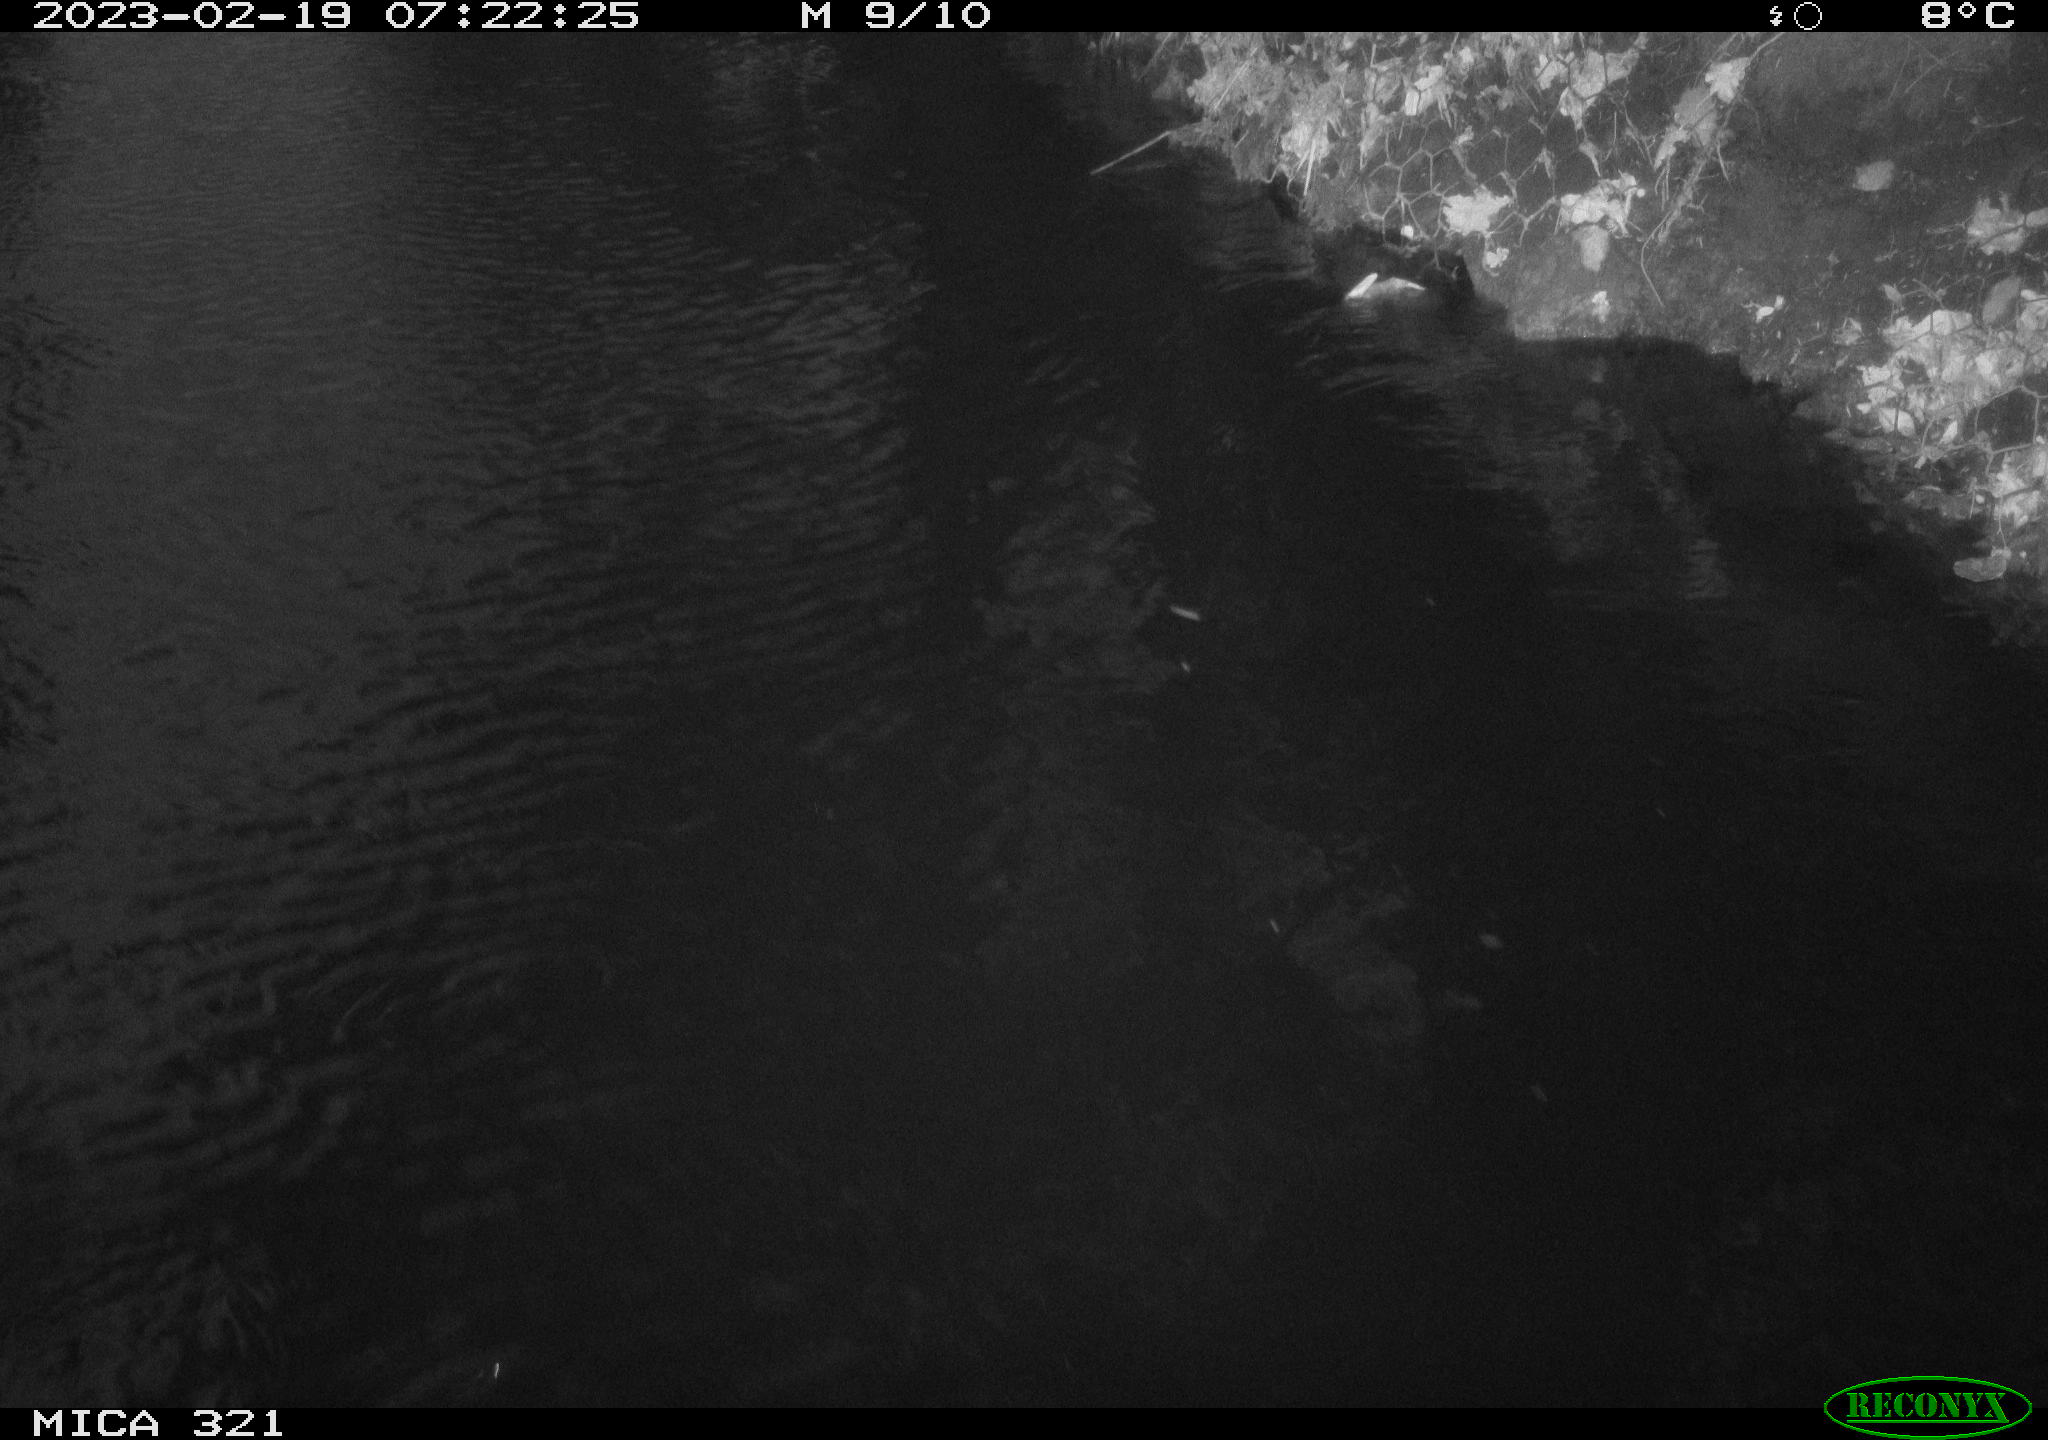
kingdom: Animalia
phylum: Chordata
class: Aves
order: Anseriformes
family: Anatidae
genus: Anas
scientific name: Anas
